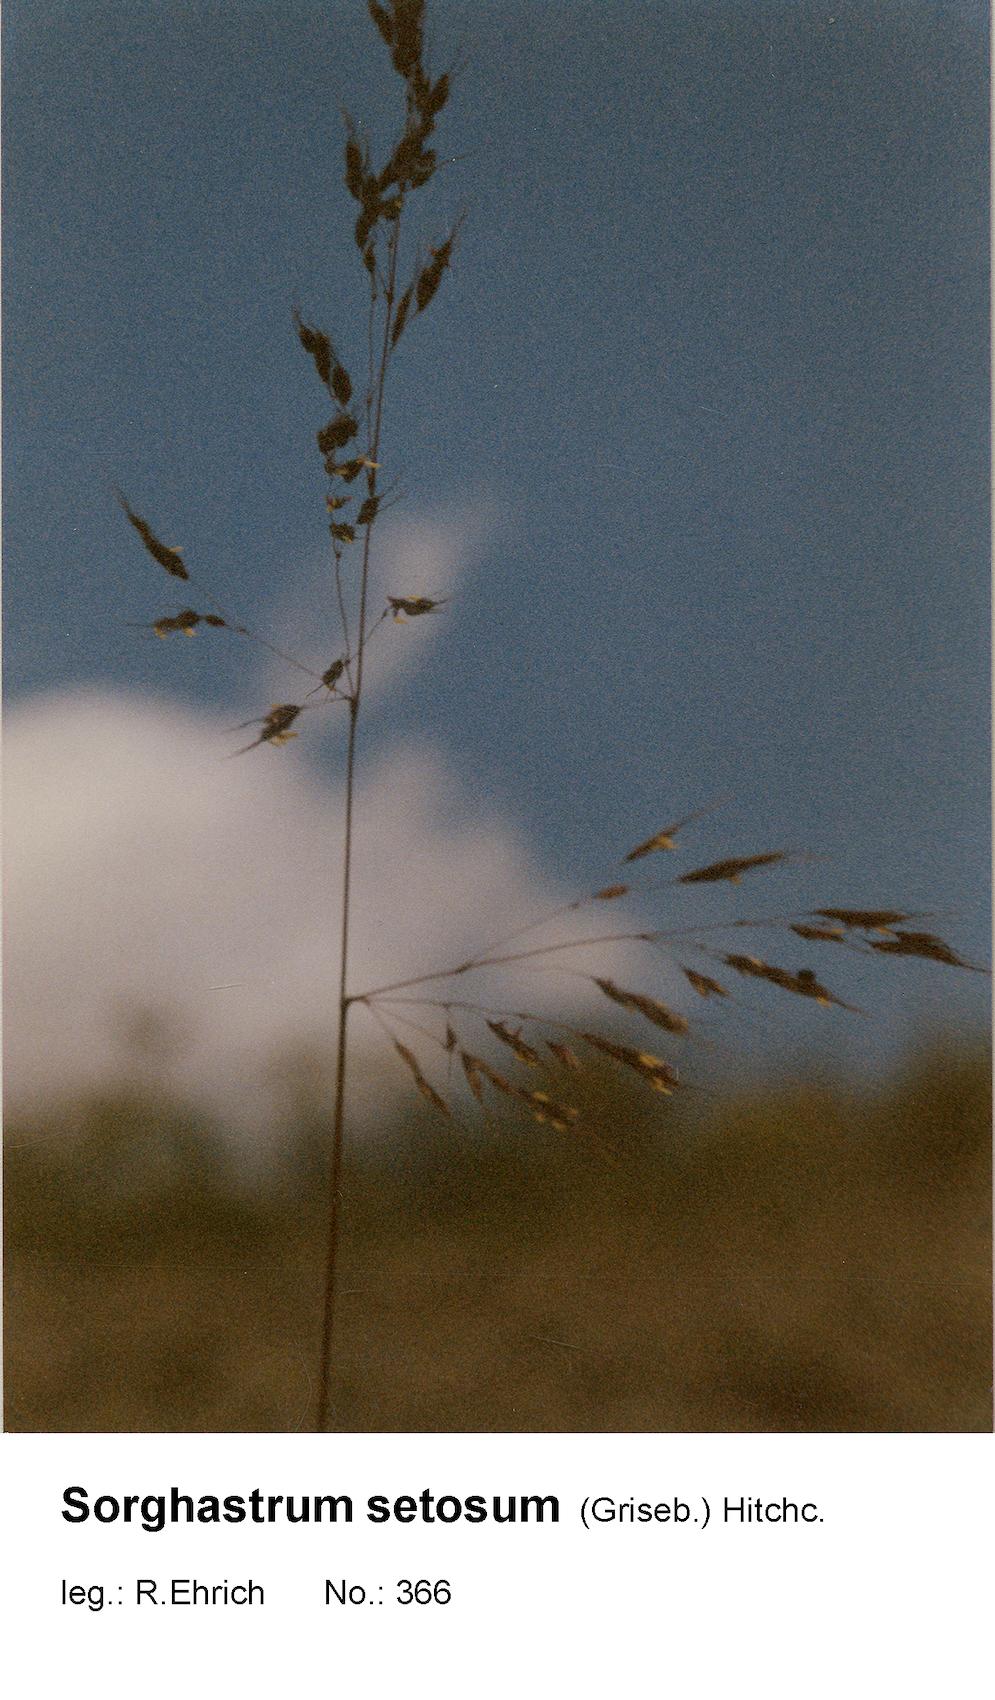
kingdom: Plantae
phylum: Tracheophyta
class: Liliopsida
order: Poales
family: Poaceae
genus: Sorghastrum
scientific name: Sorghastrum setosum
